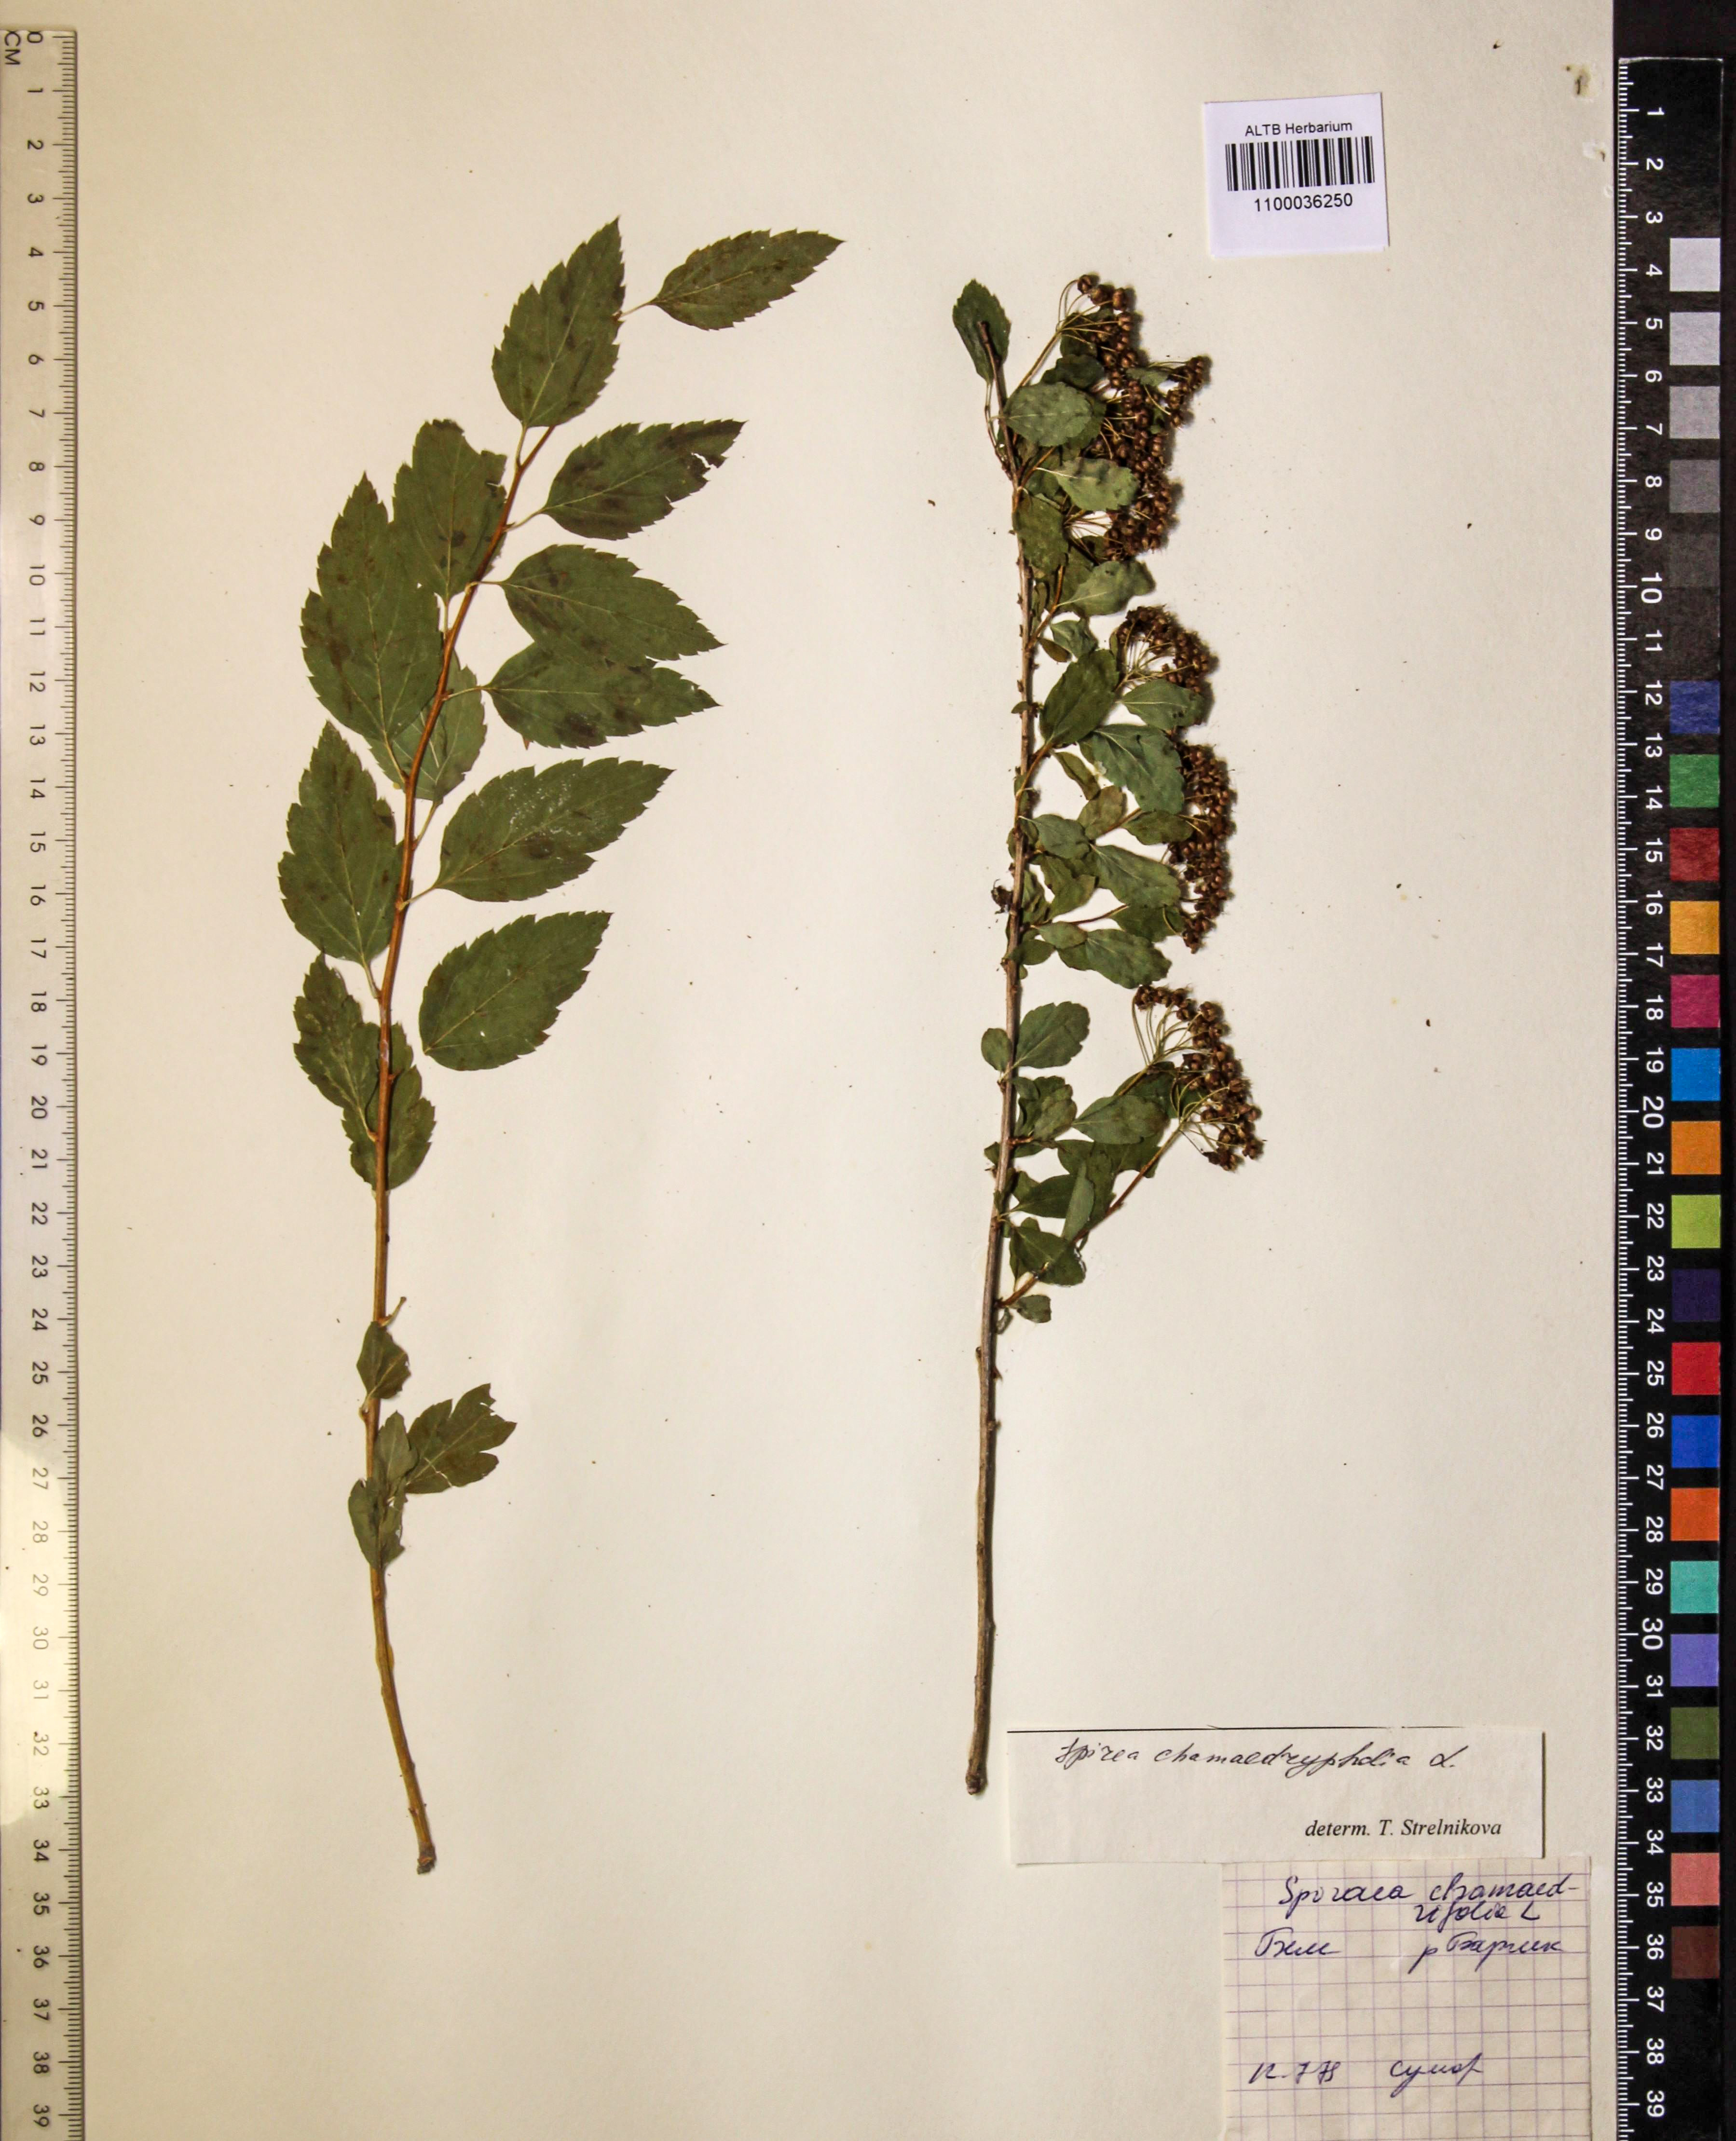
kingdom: Plantae
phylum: Tracheophyta
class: Magnoliopsida
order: Rosales
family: Rosaceae
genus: Spiraea
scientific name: Spiraea chamaedryfolia
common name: Elm-leaved spiraea
